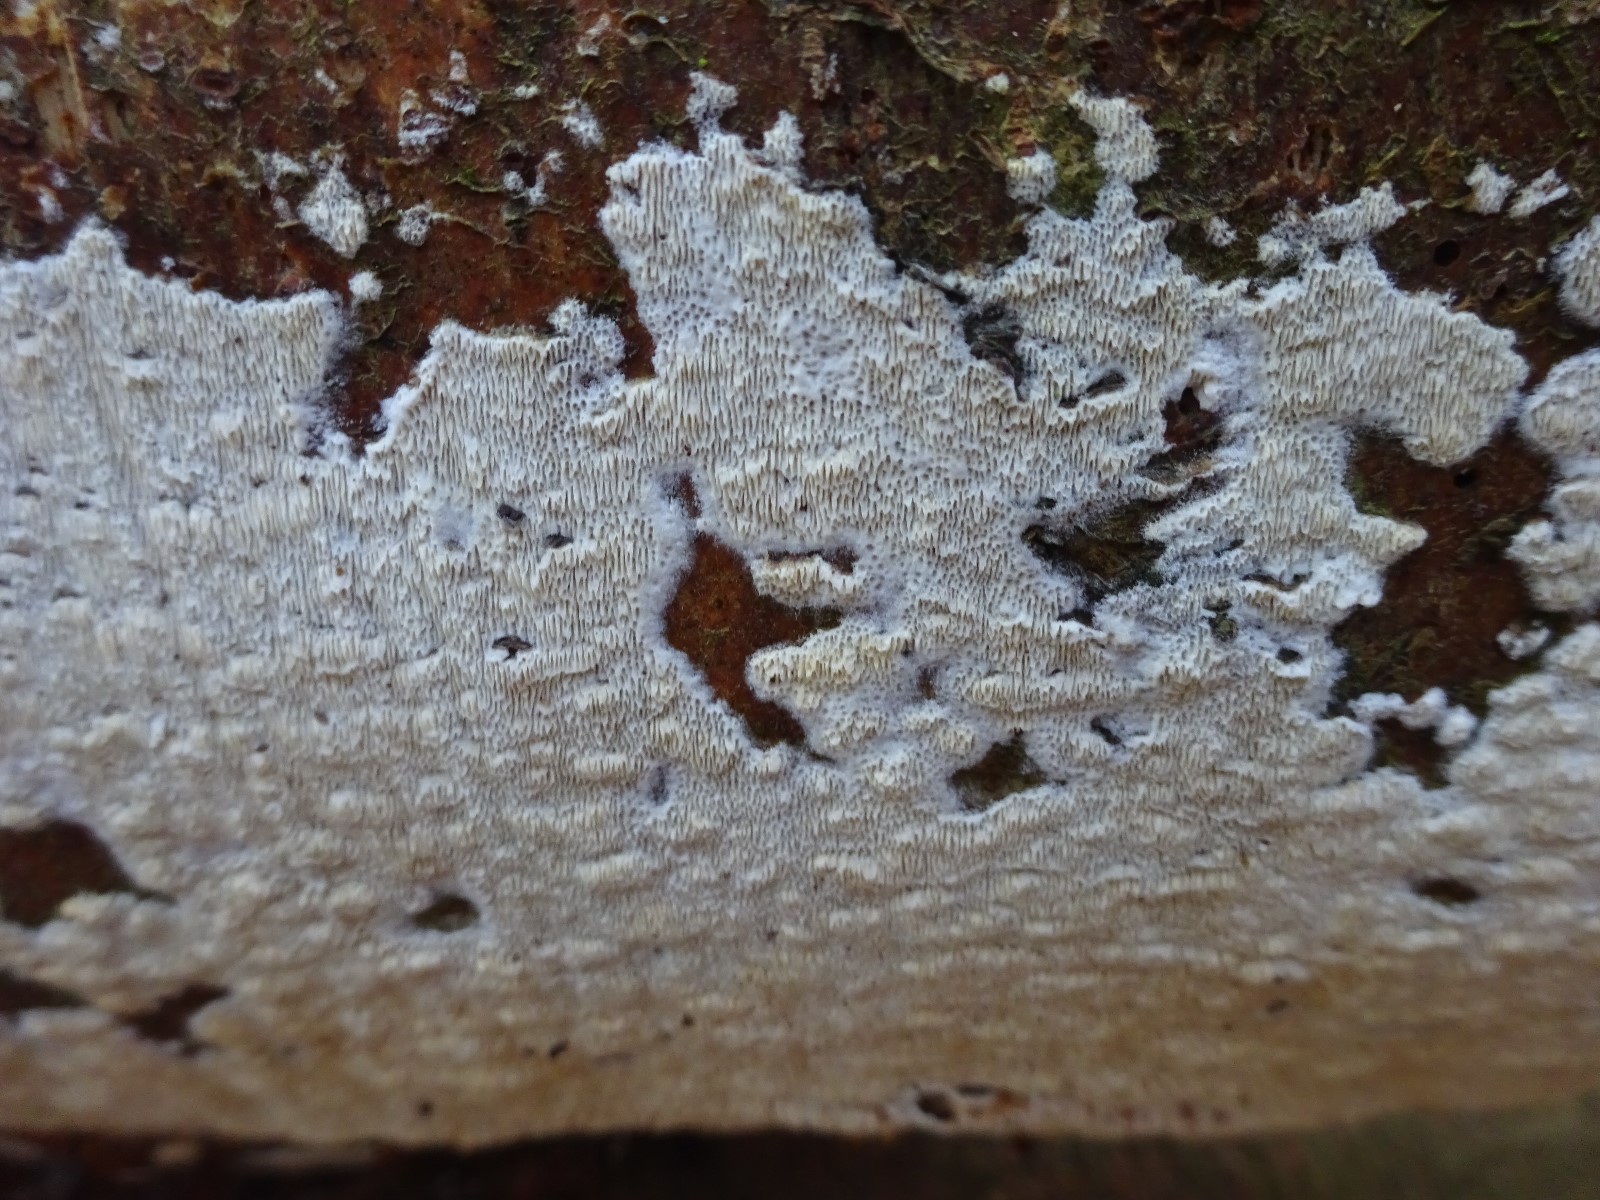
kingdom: Fungi
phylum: Basidiomycota
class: Agaricomycetes
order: Hymenochaetales
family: Schizoporaceae
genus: Xylodon
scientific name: Xylodon subtropicus
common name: labyrint-tandsvamp
